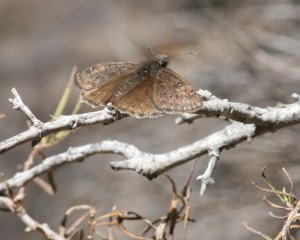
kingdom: Animalia
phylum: Arthropoda
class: Insecta
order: Lepidoptera
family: Hesperiidae
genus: Erynnis
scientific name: Erynnis meridianus
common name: Meridian Duskywing
